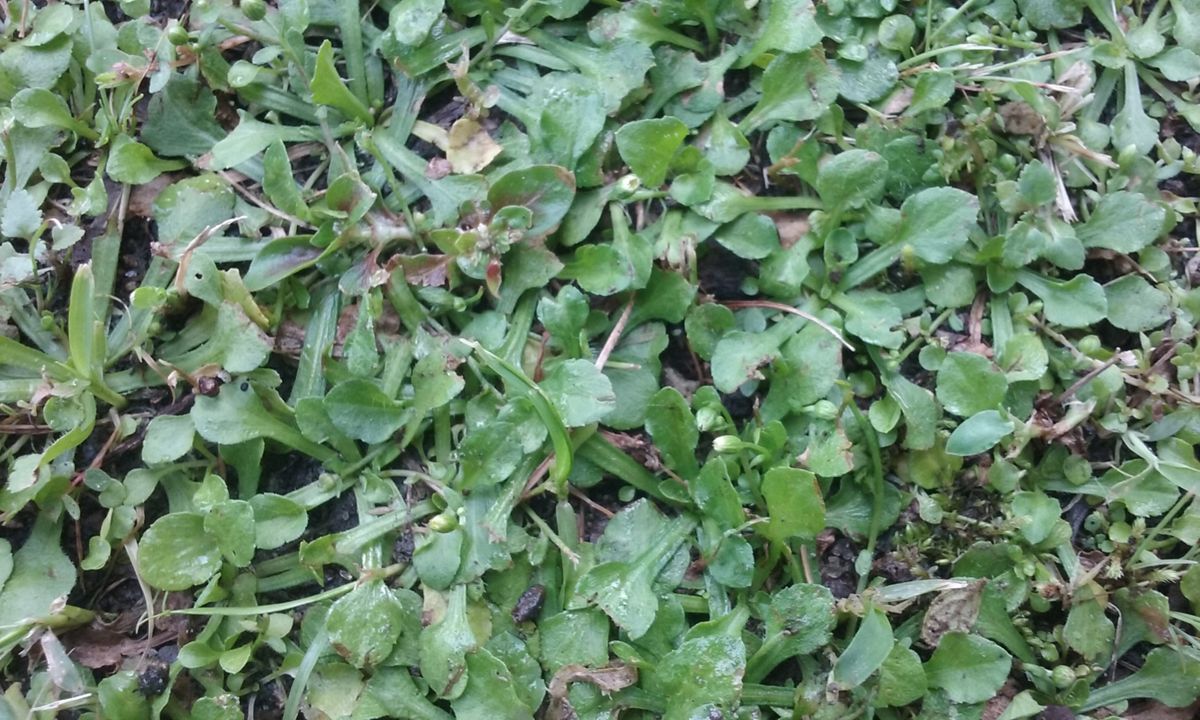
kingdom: Plantae
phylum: Tracheophyta
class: Magnoliopsida
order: Asterales
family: Asteraceae
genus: Bellis
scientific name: Bellis perennis
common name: Lawndaisy
